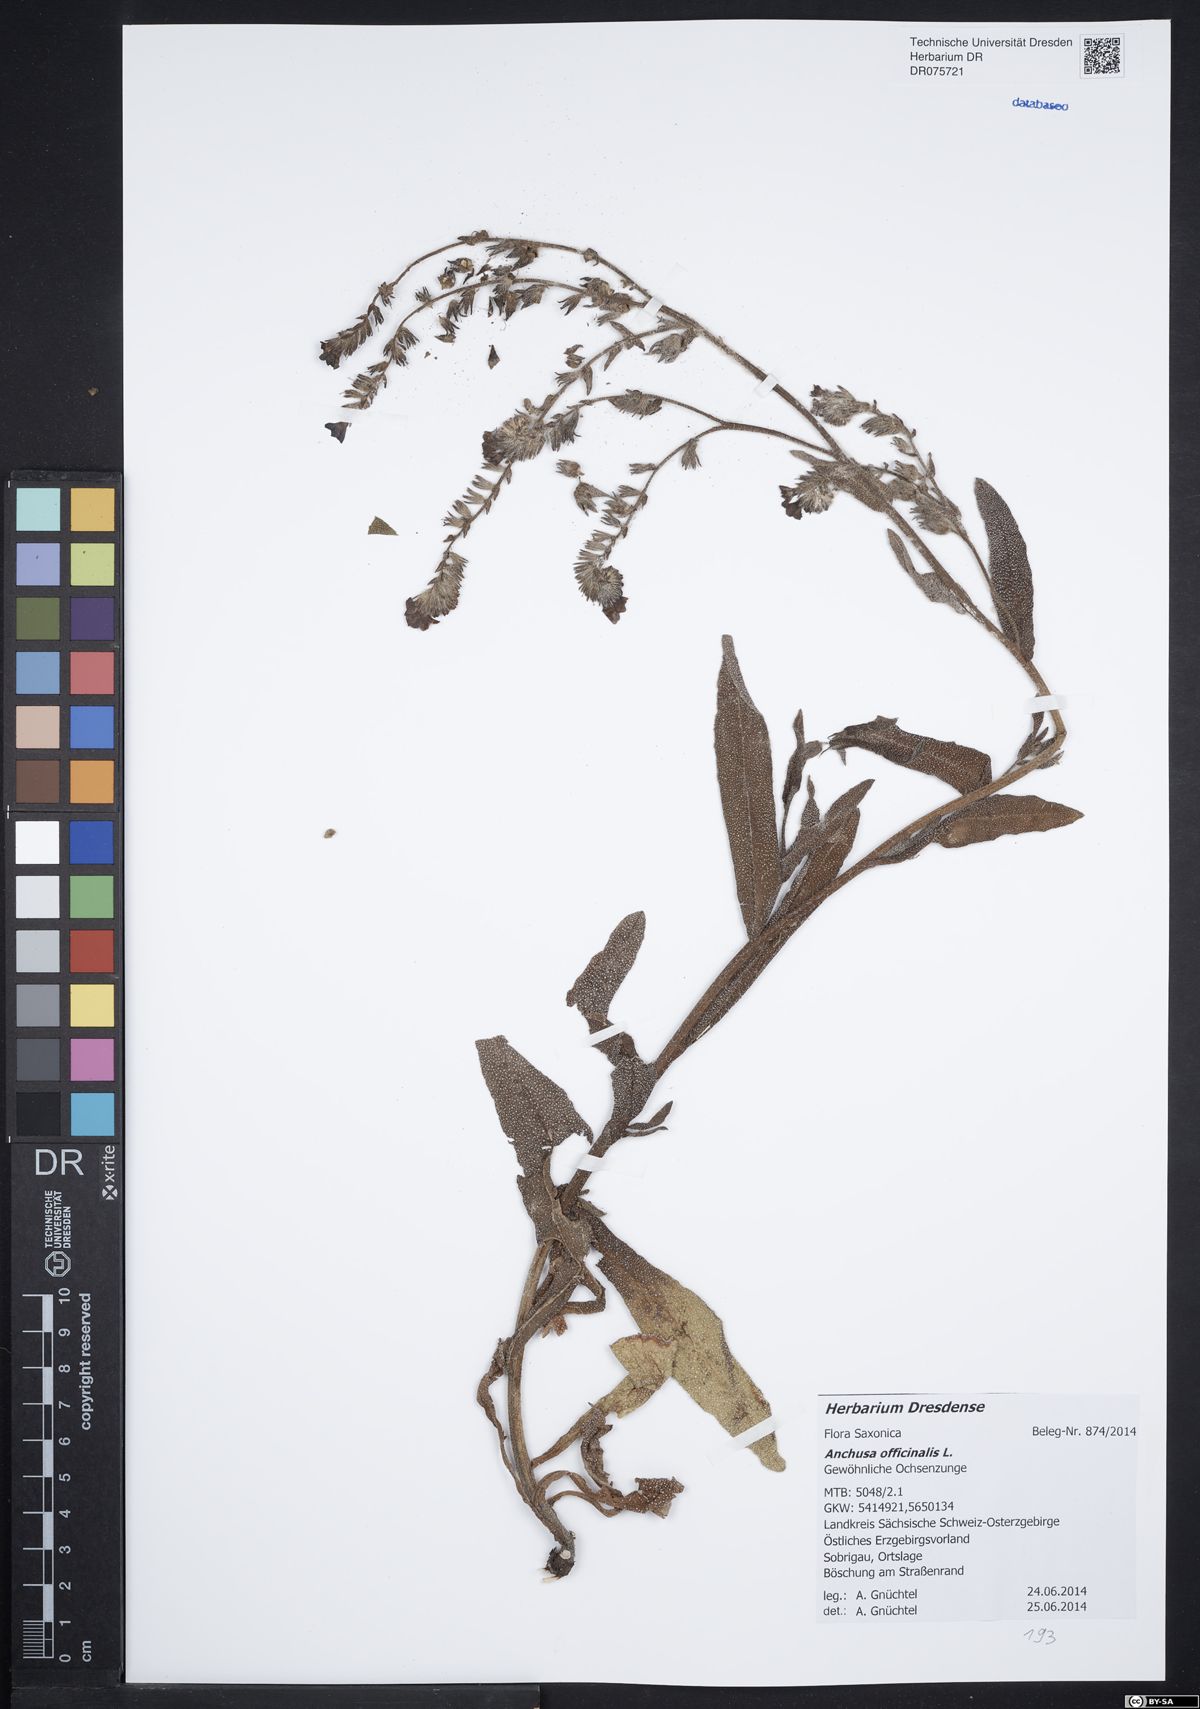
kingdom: Plantae
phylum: Tracheophyta
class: Magnoliopsida
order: Boraginales
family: Boraginaceae
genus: Anchusa
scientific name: Anchusa officinalis
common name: Alkanet
